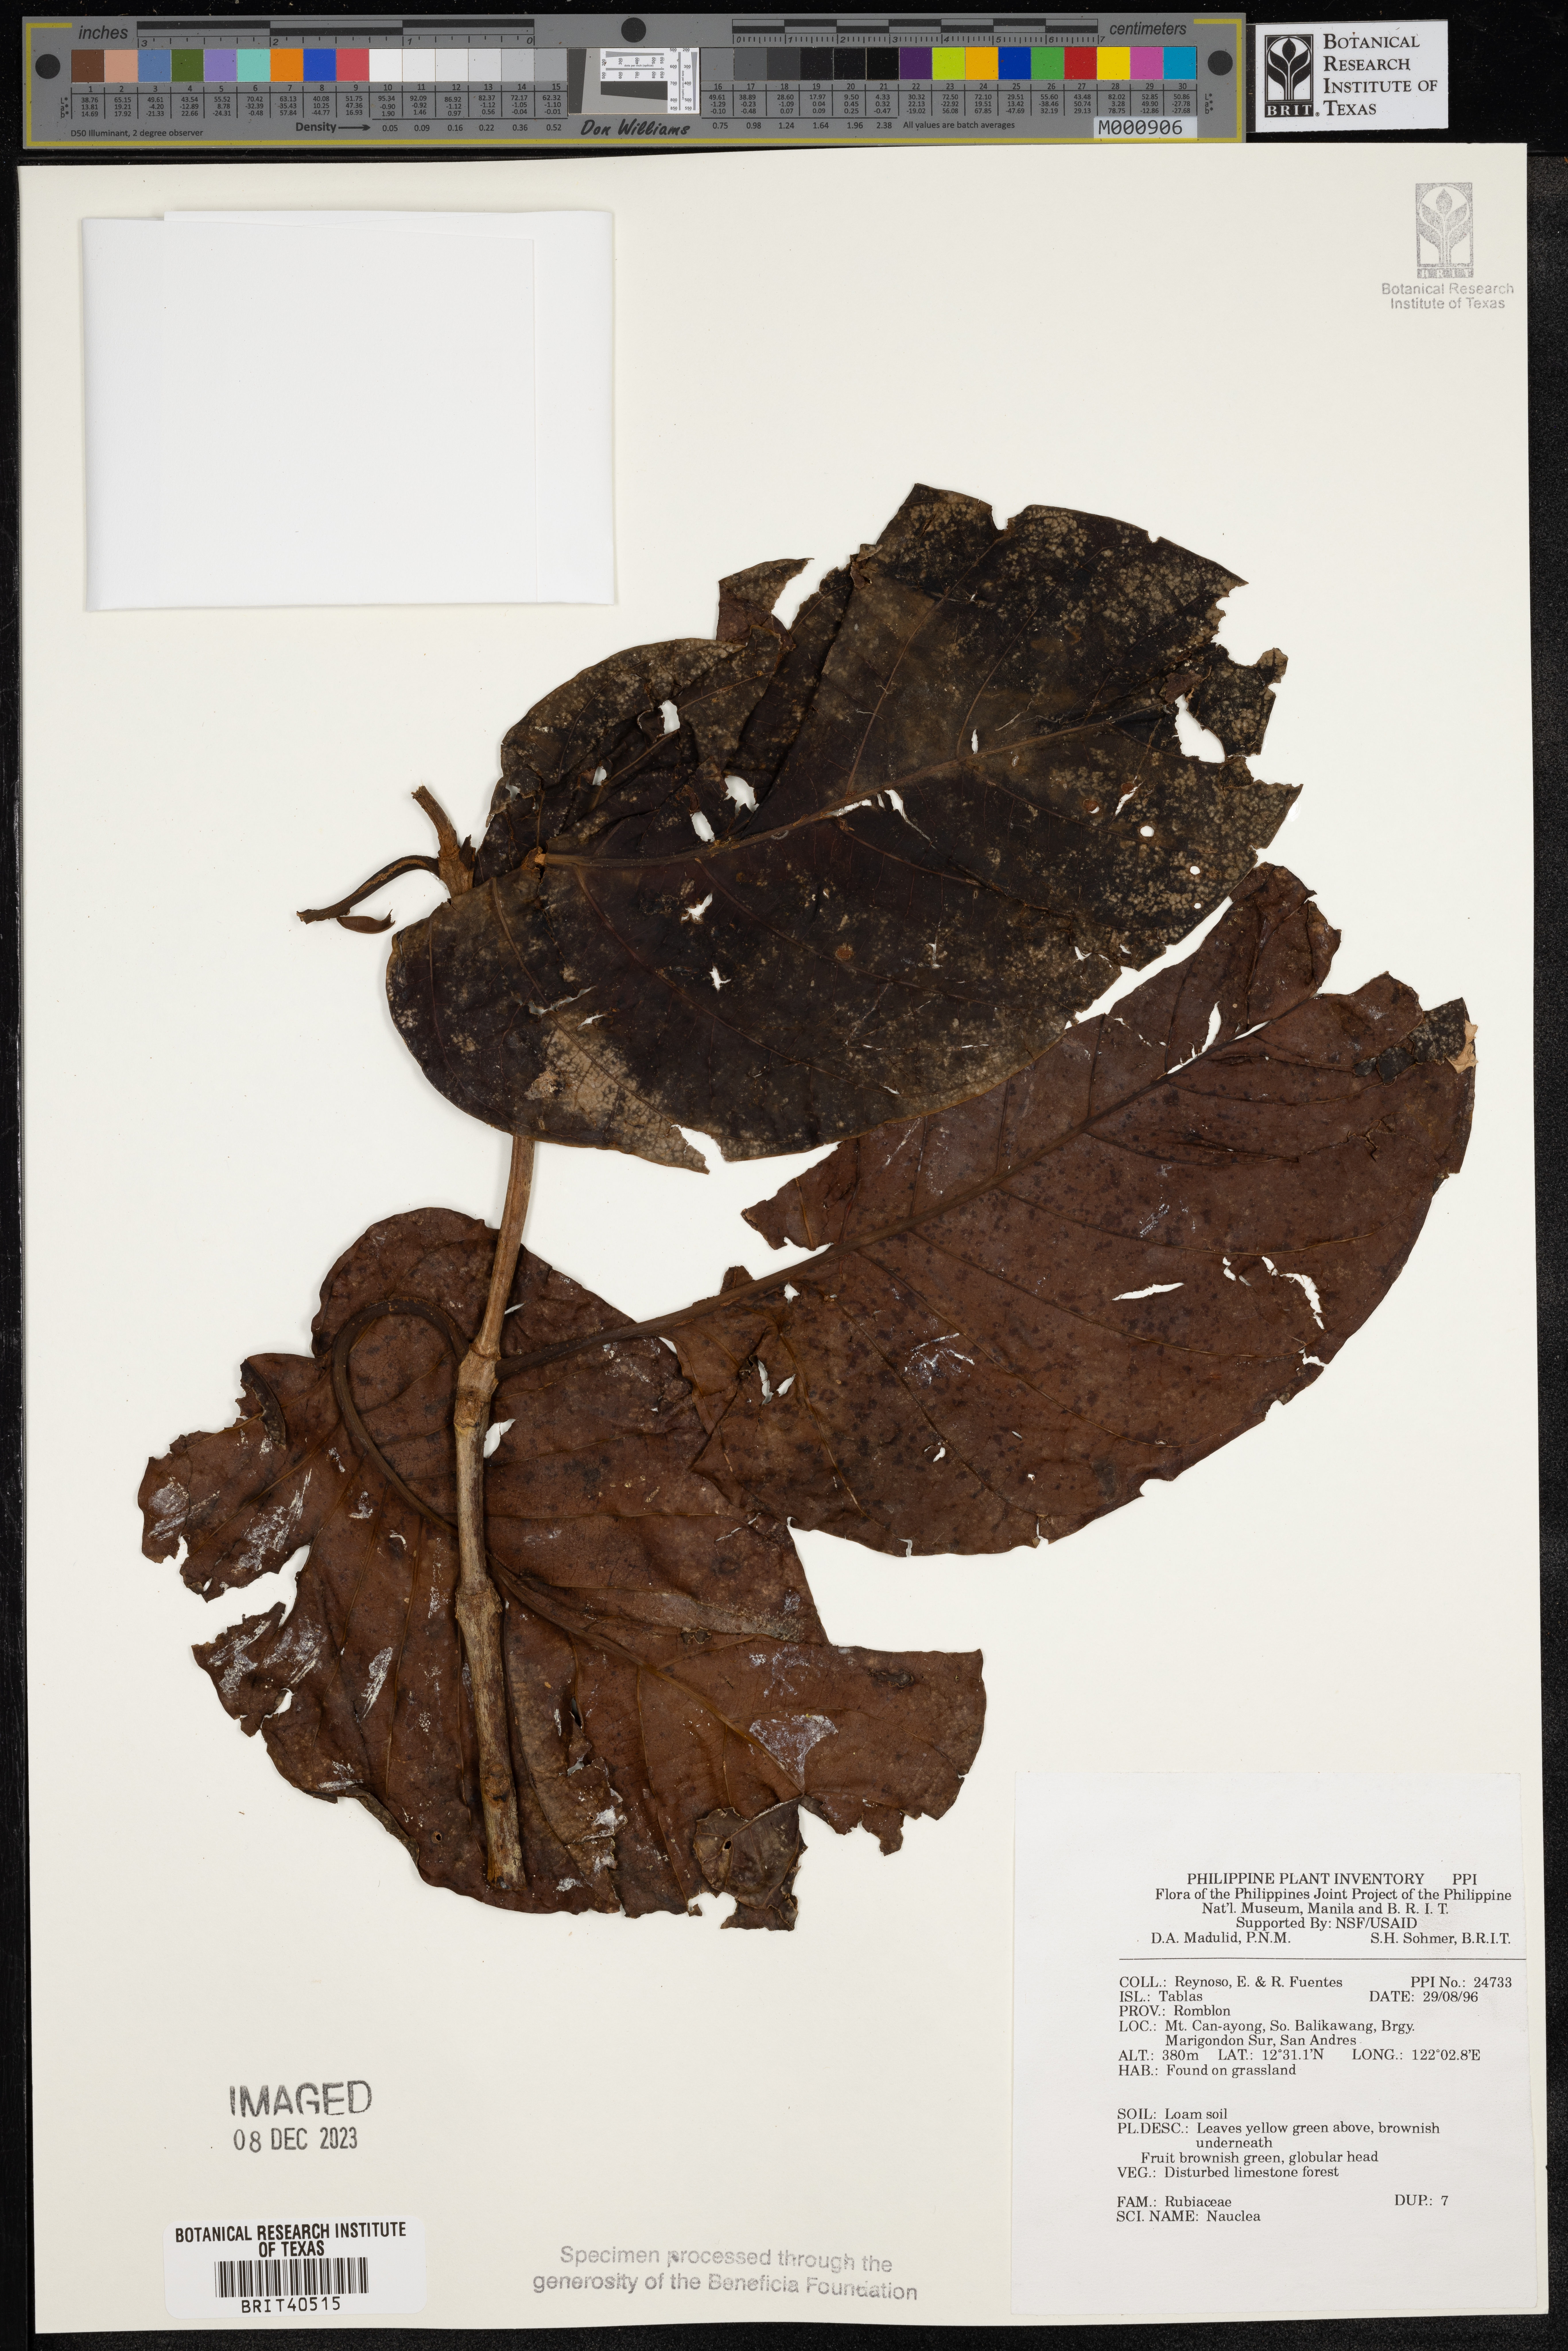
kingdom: Plantae
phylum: Tracheophyta
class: Magnoliopsida
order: Gentianales
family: Rubiaceae
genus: Nauclea
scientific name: Nauclea
